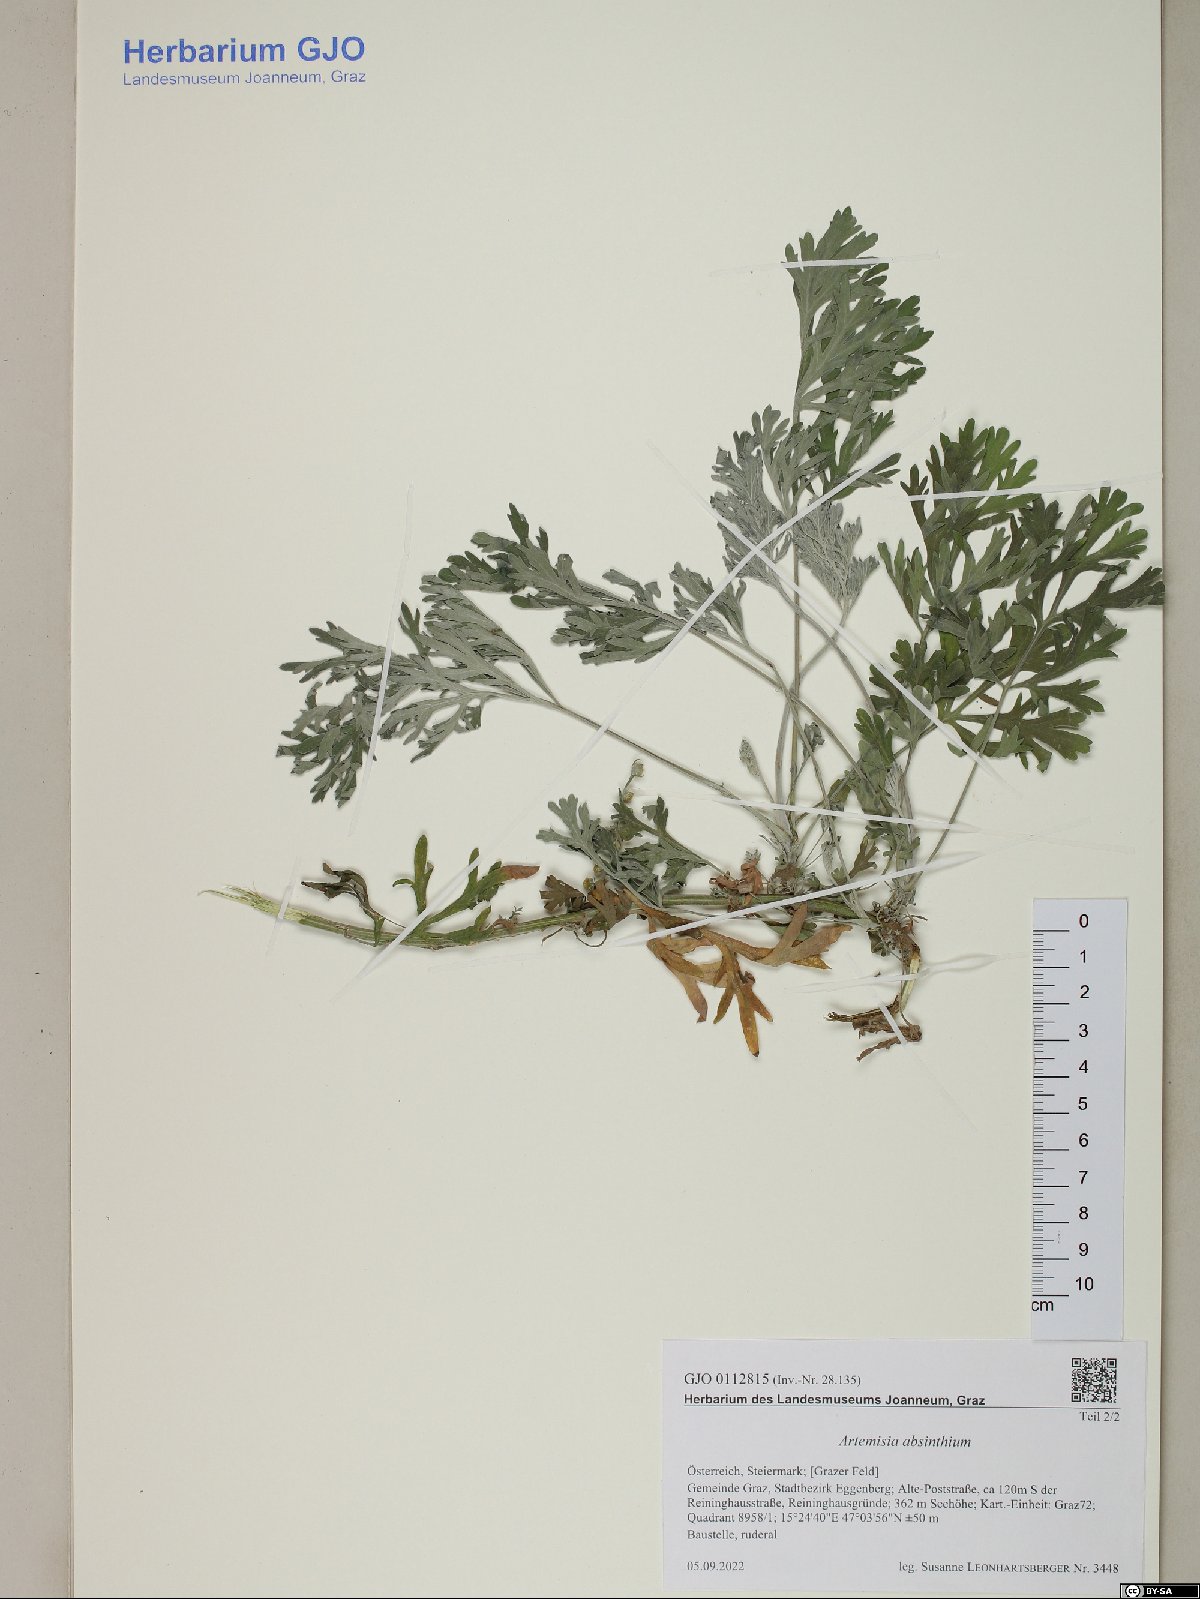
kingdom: Plantae
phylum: Tracheophyta
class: Magnoliopsida
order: Asterales
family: Asteraceae
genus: Artemisia
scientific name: Artemisia absinthium
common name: Wormwood
